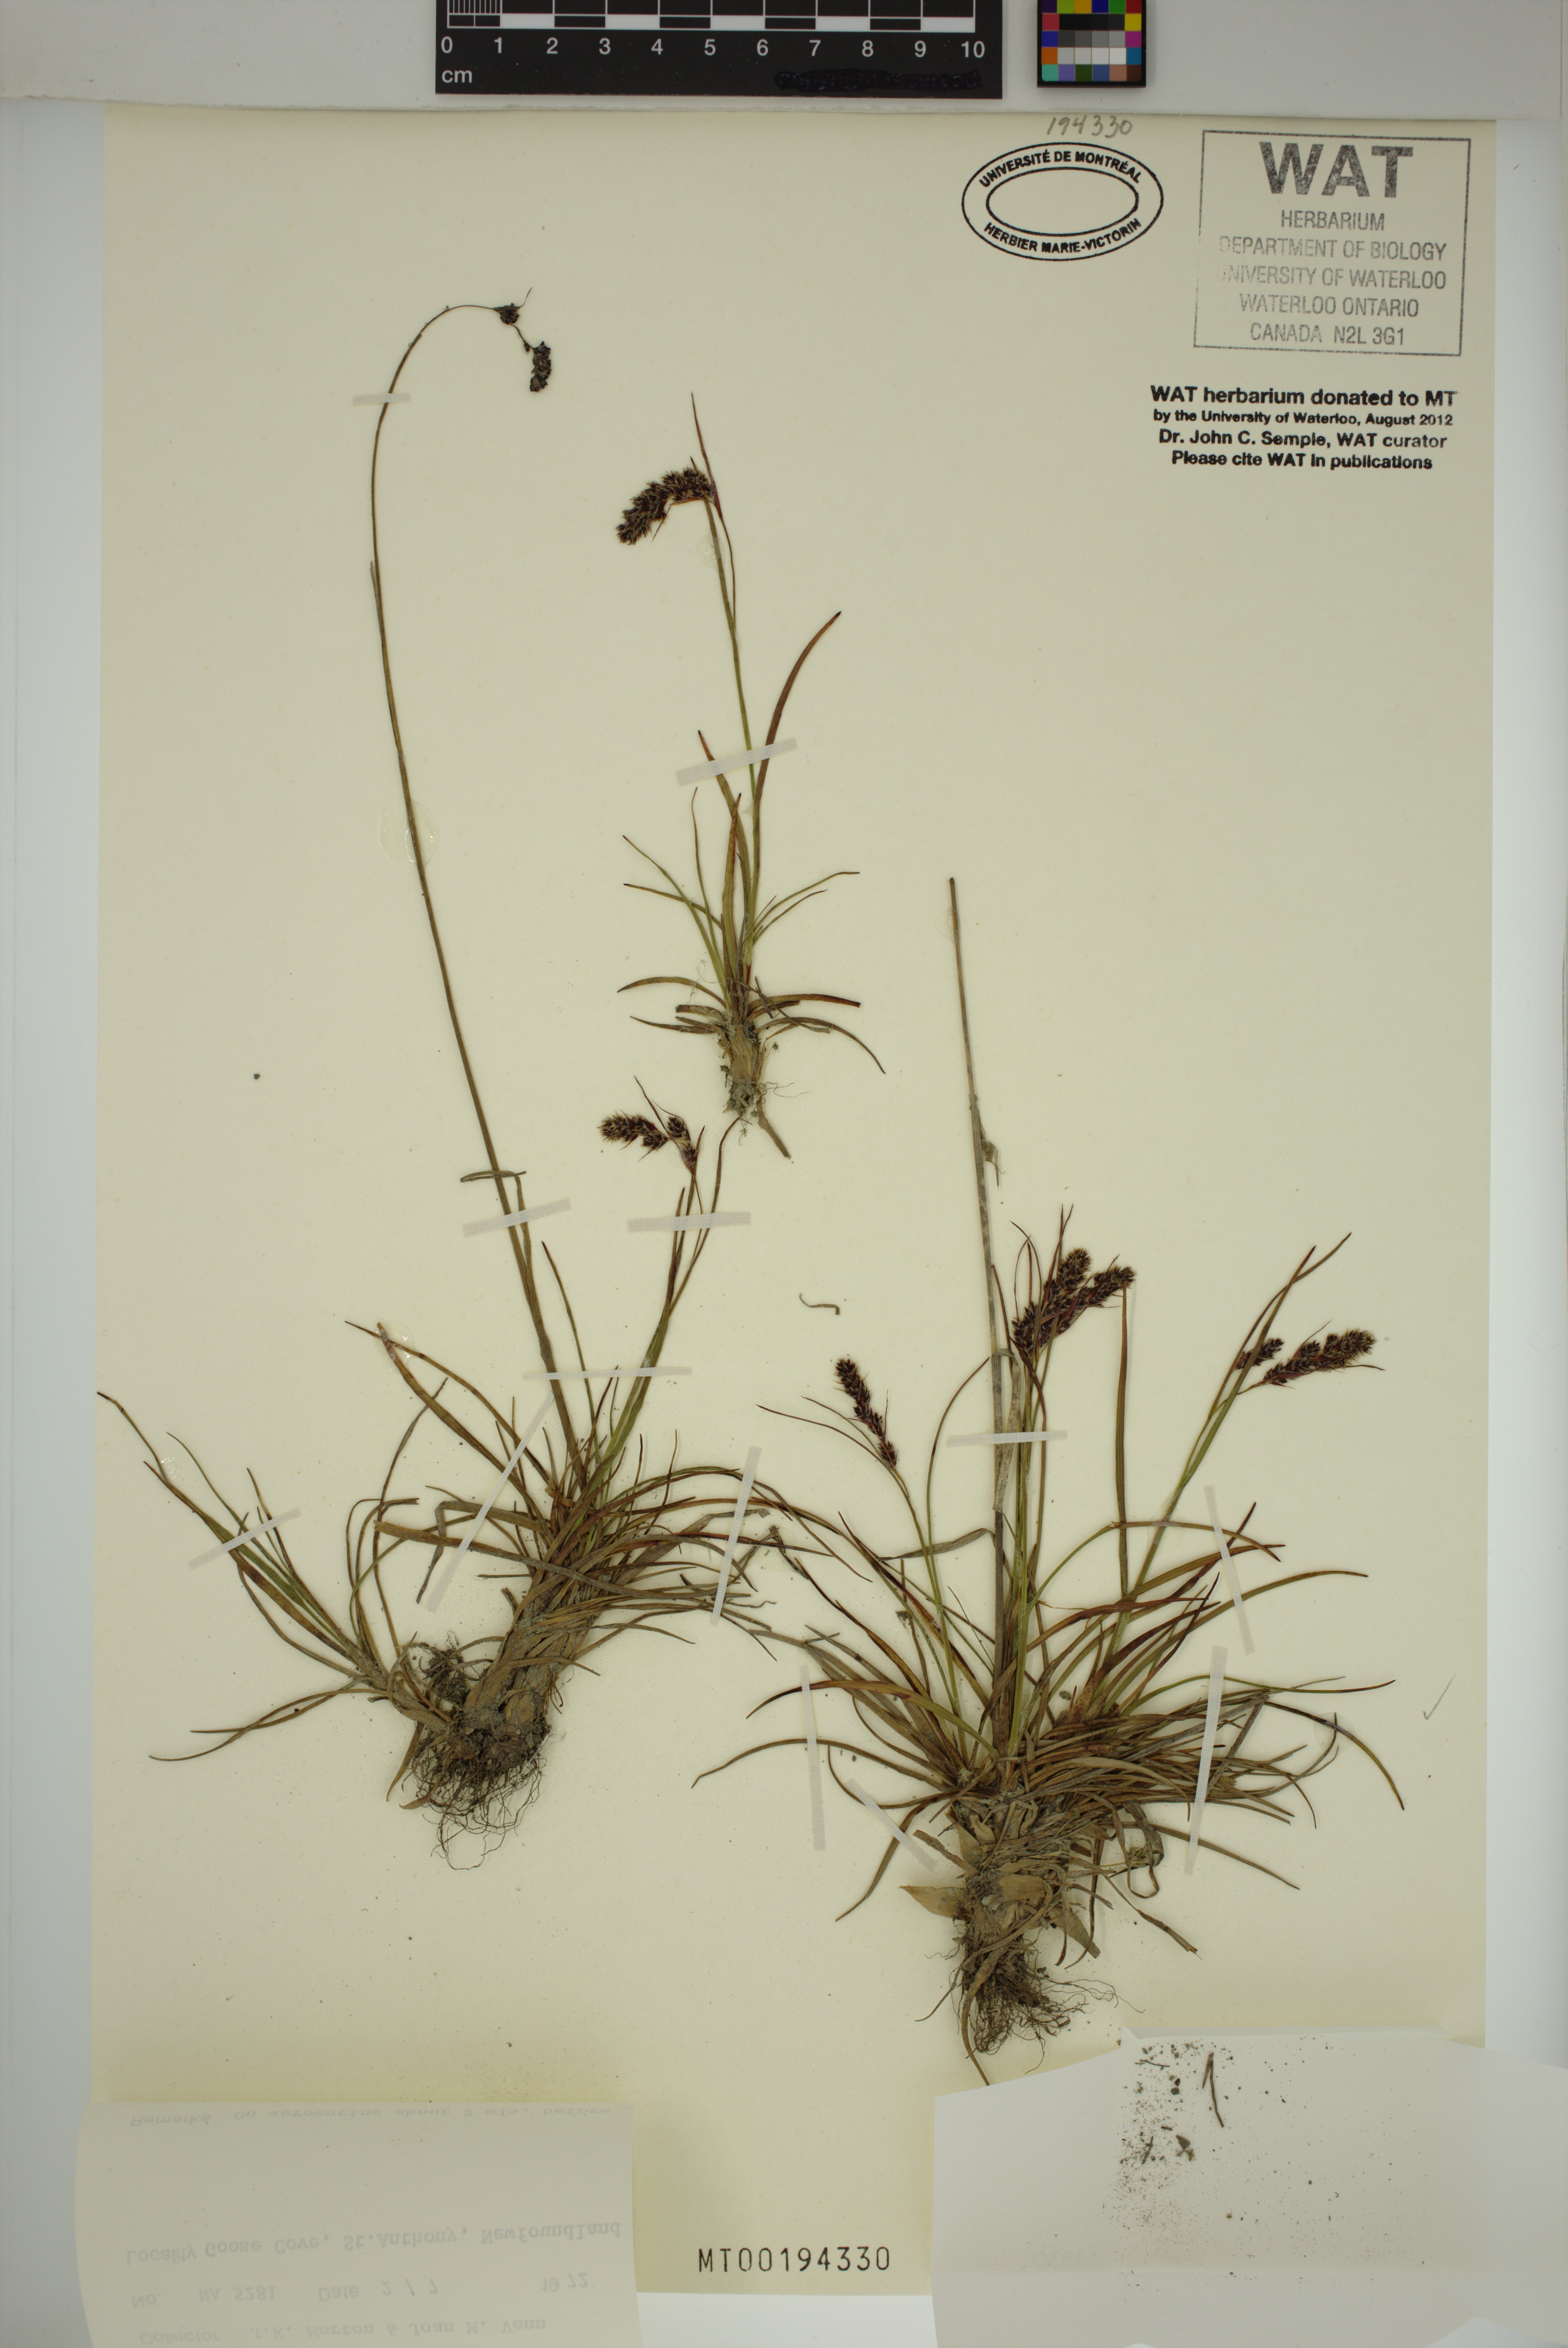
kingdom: Plantae
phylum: Tracheophyta
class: Liliopsida
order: Poales
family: Juncaceae
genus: Luzula
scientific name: Luzula spicata
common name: Spiked wood-rush
